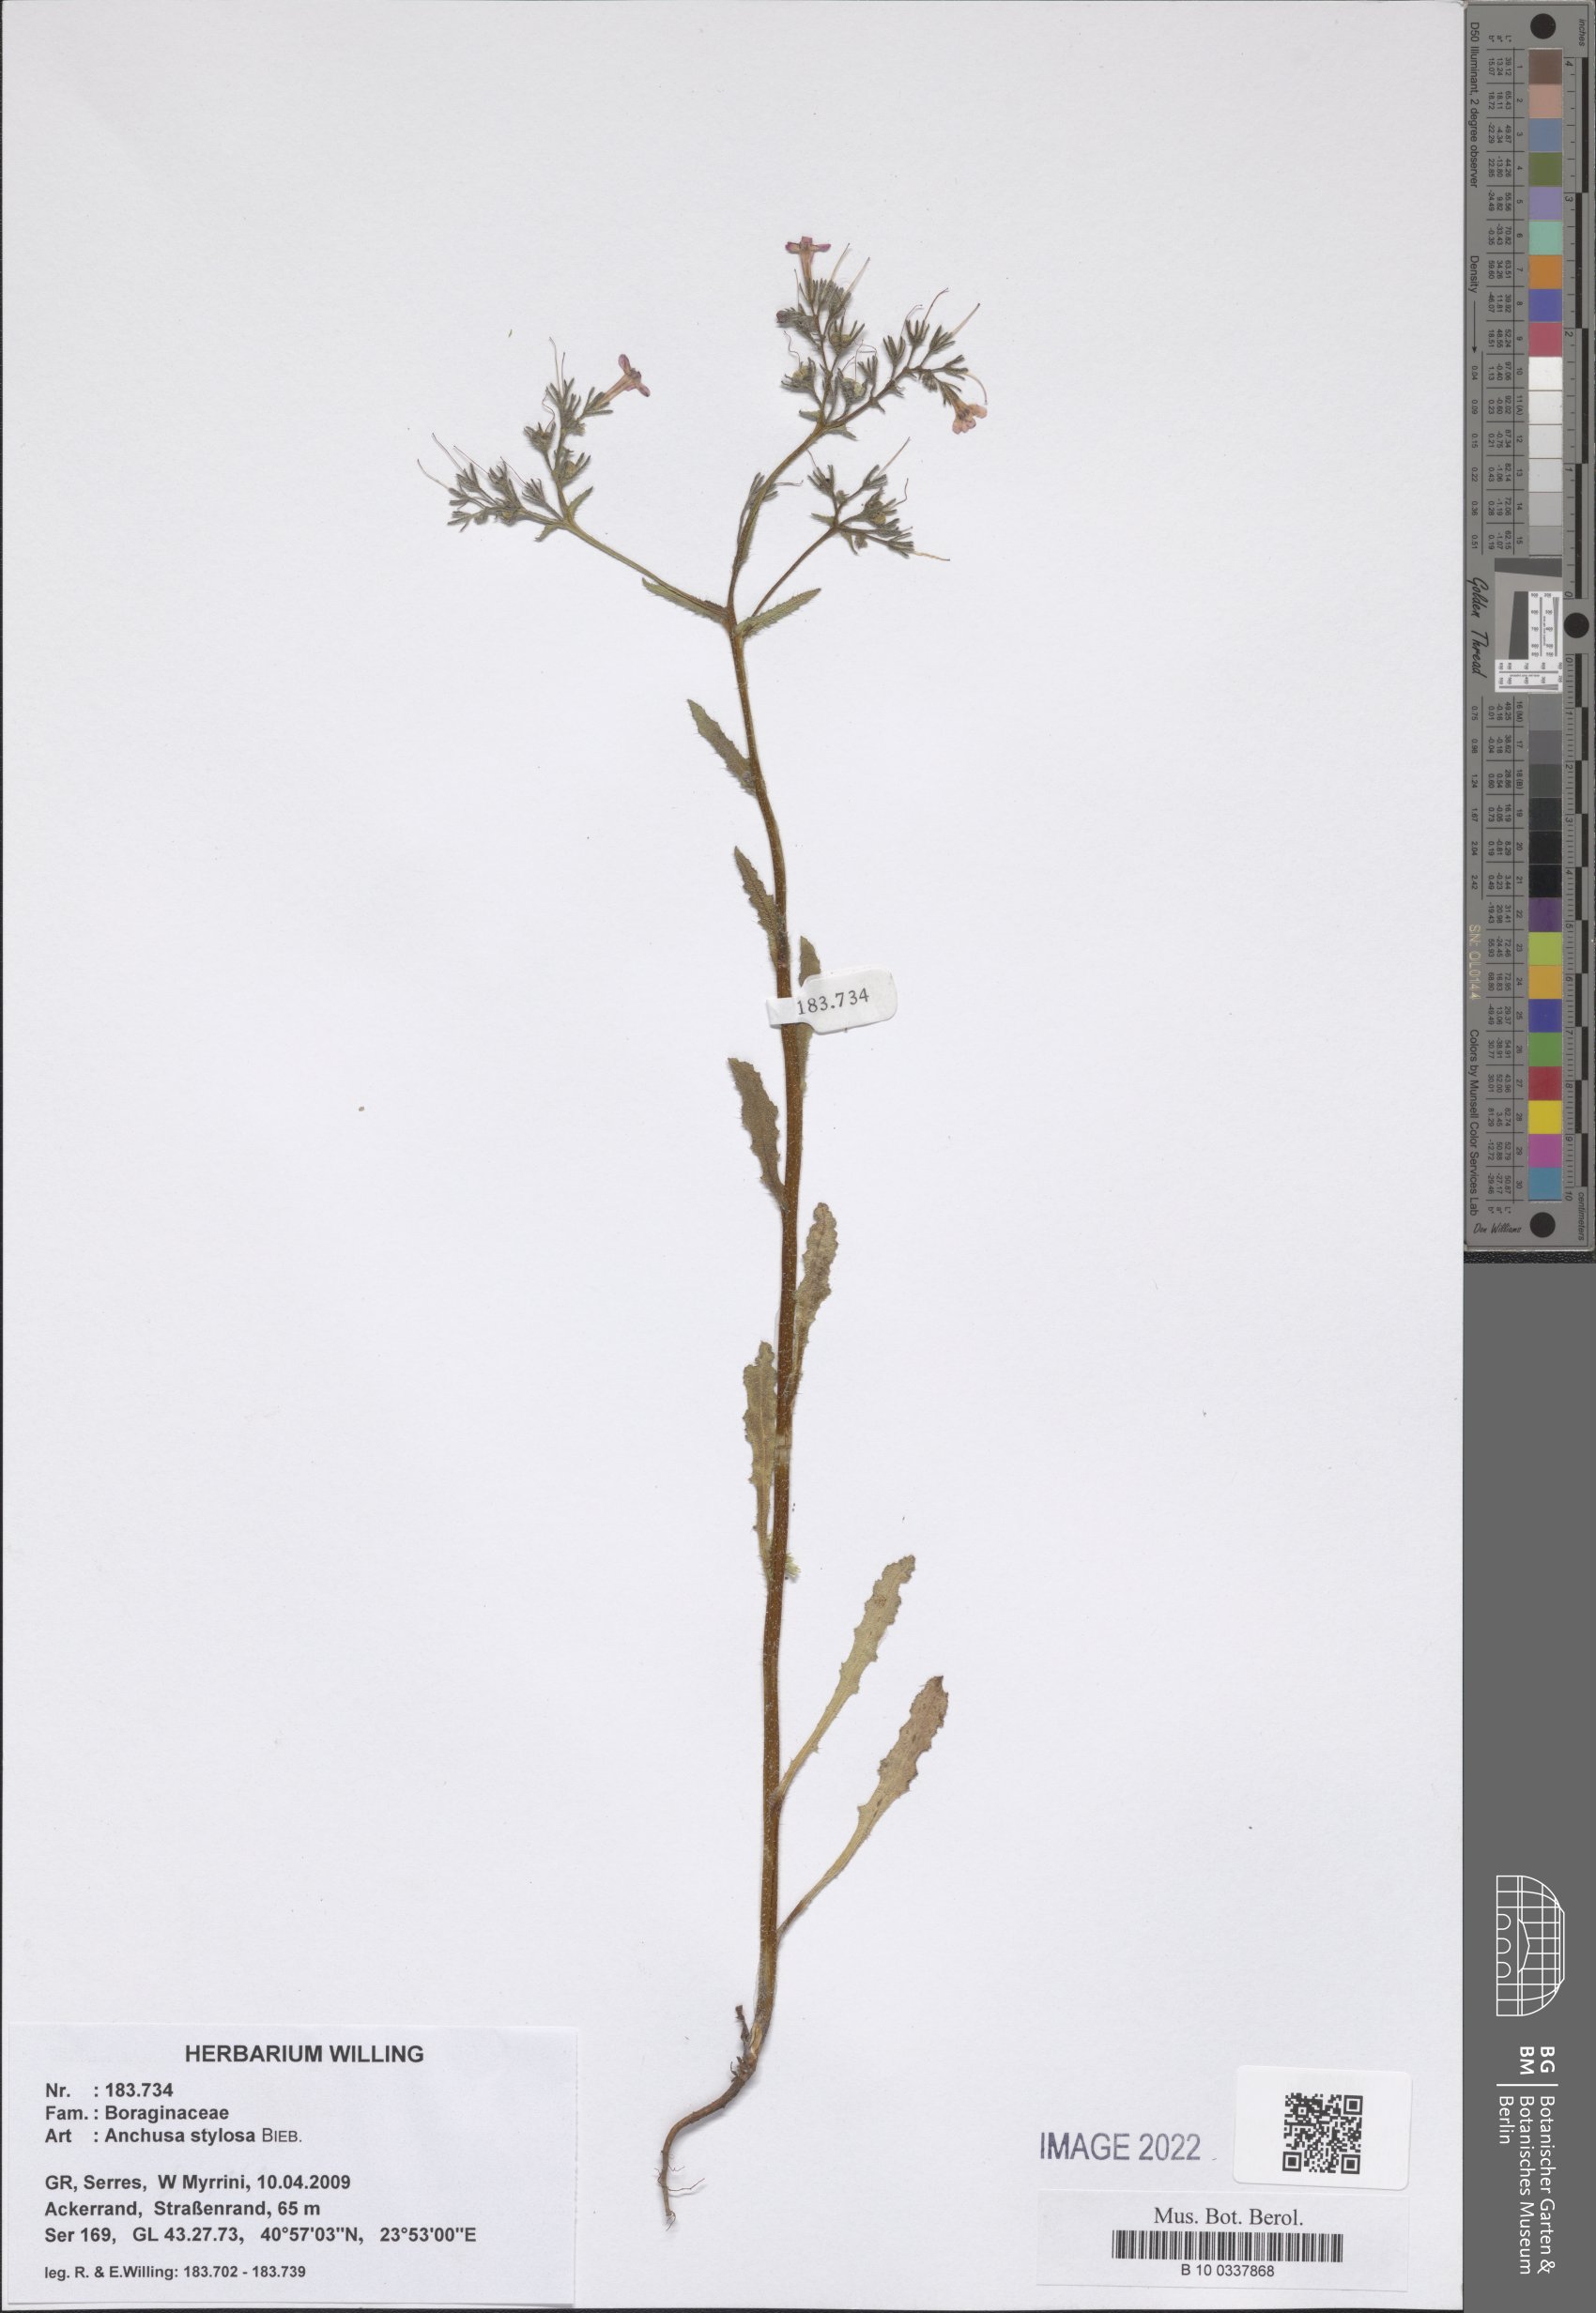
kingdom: Plantae
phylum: Tracheophyta
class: Magnoliopsida
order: Boraginales
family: Boraginaceae
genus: Anchusa
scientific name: Anchusa stylosa
